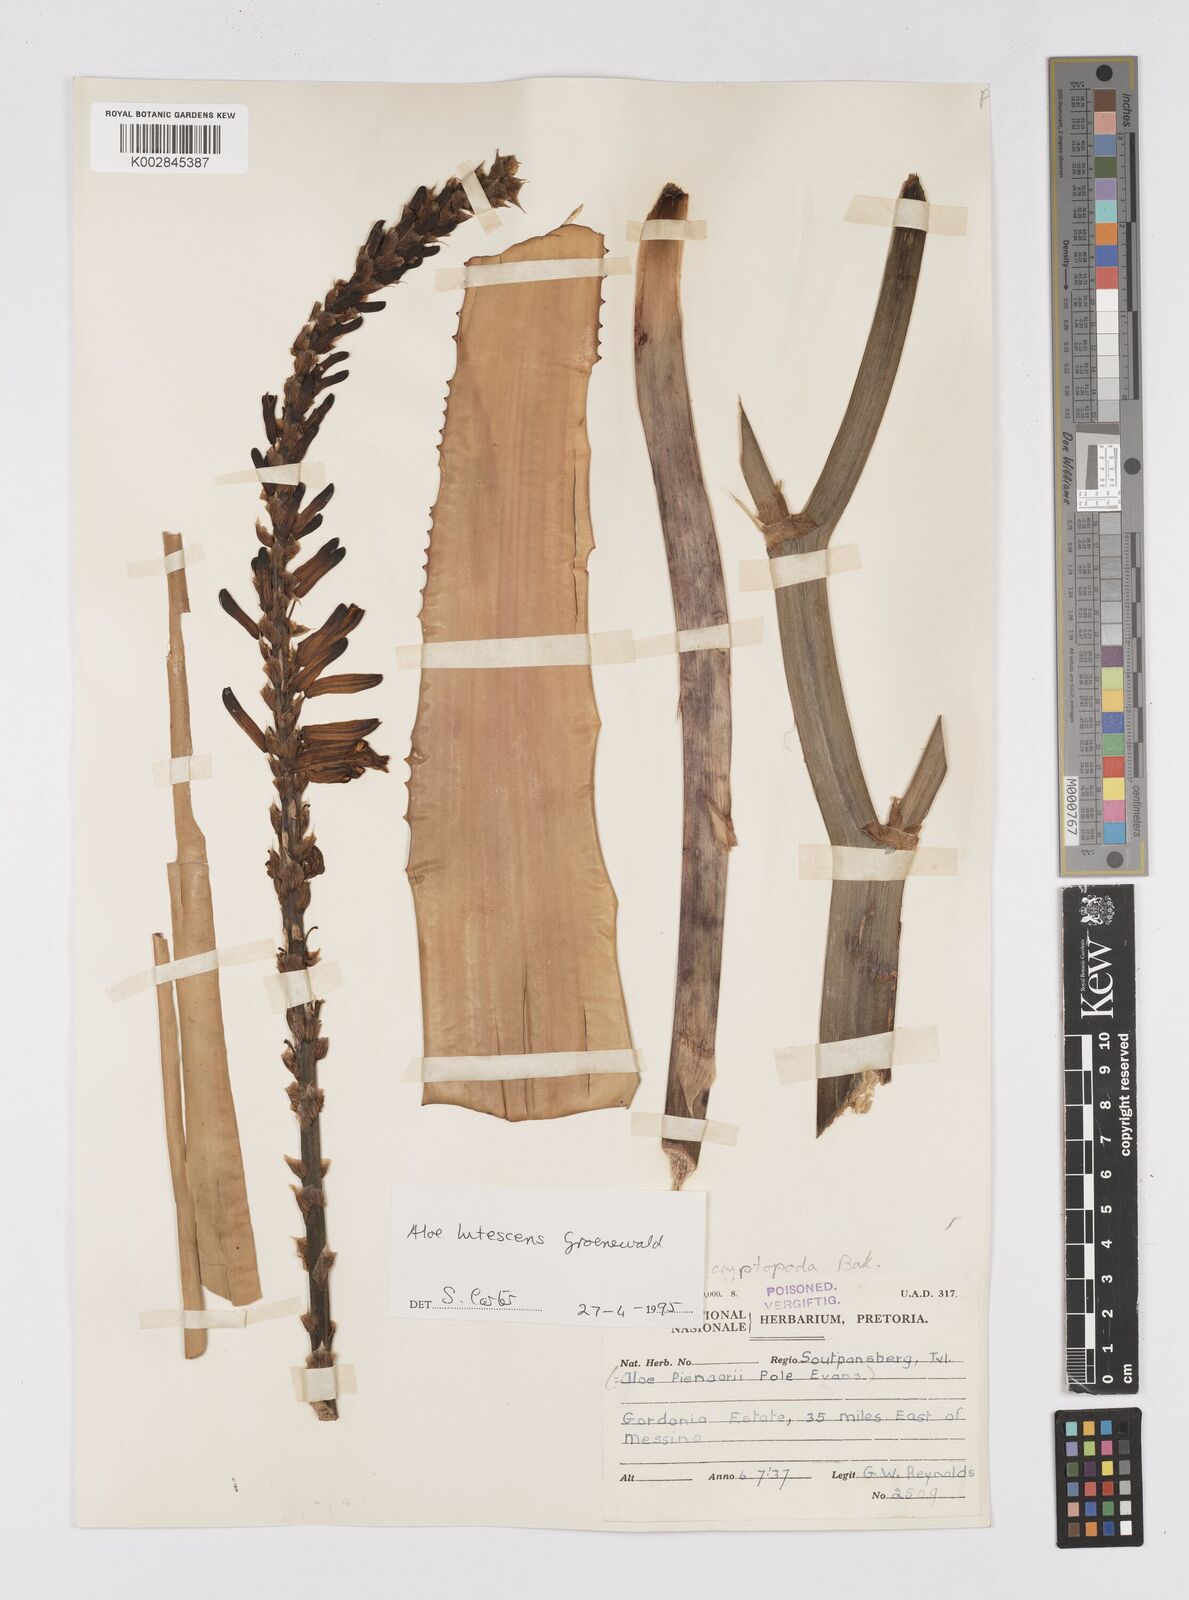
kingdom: Plantae
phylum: Tracheophyta
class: Liliopsida
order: Asparagales
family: Asphodelaceae
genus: Aloe
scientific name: Aloe lutescens
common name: Malapati aloe
